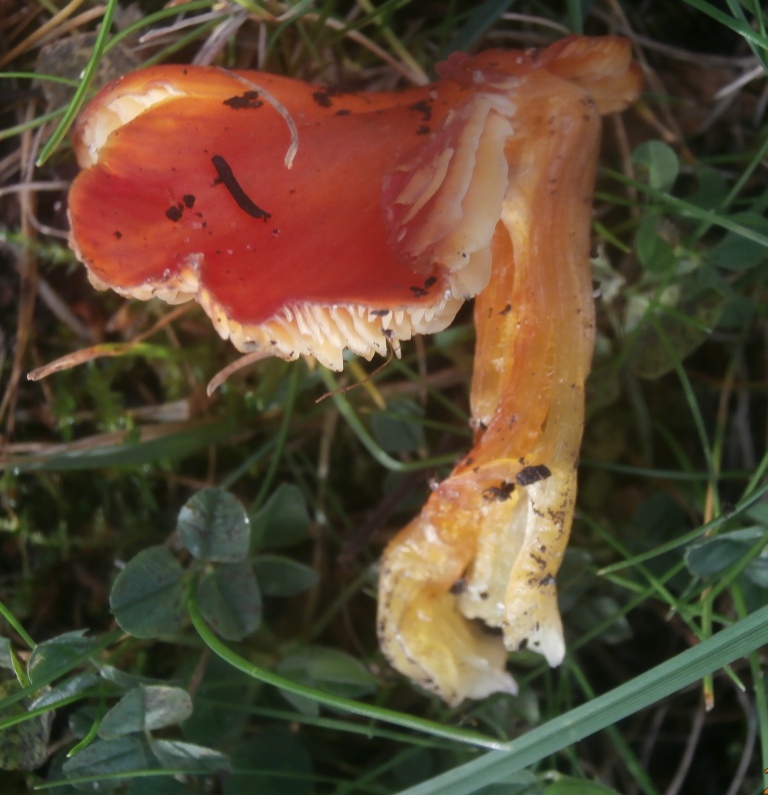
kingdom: Fungi
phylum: Basidiomycota
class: Agaricomycetes
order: Agaricales
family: Hygrophoraceae
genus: Hygrocybe
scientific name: Hygrocybe conica
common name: kegle-vokshat
